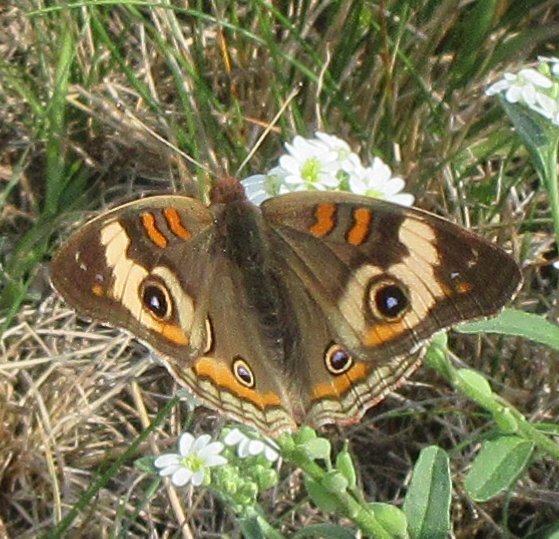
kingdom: Animalia
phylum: Arthropoda
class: Insecta
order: Lepidoptera
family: Nymphalidae
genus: Junonia
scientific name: Junonia coenia
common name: Common Buckeye
